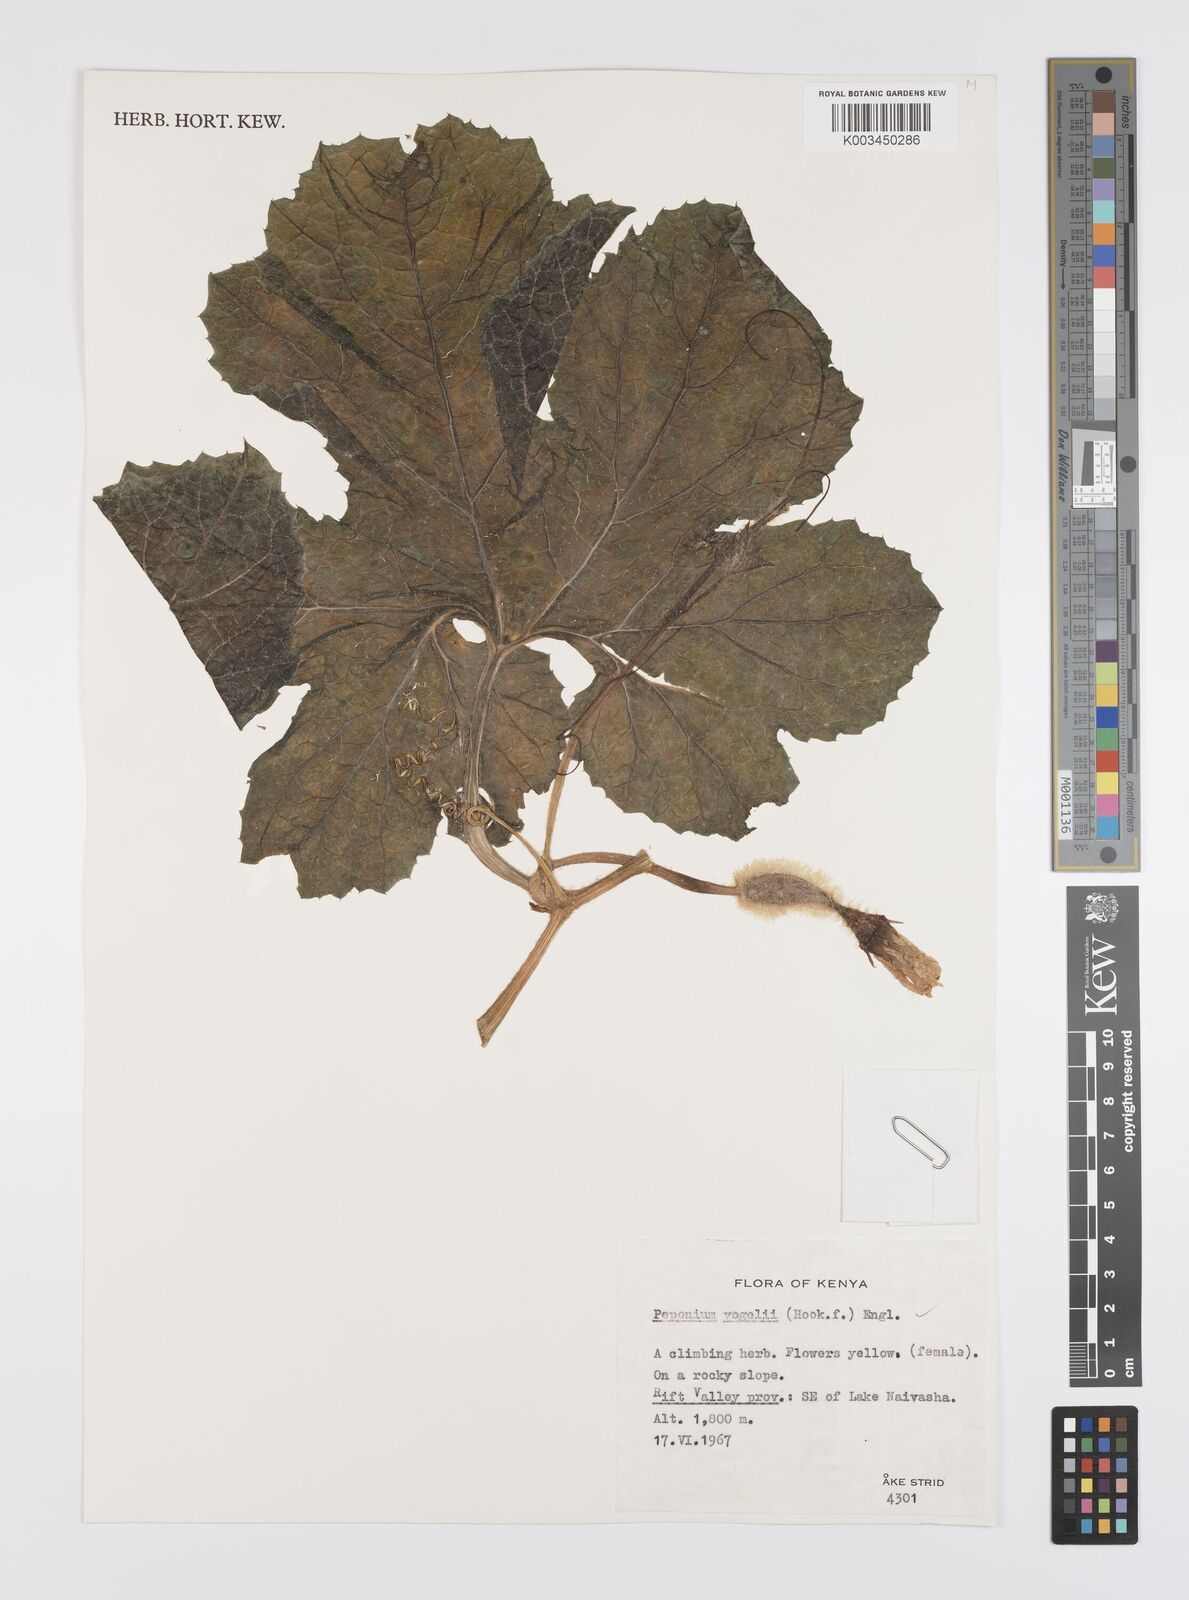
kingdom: Plantae
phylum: Tracheophyta
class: Magnoliopsida
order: Cucurbitales
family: Cucurbitaceae
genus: Peponium
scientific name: Peponium vogelii
